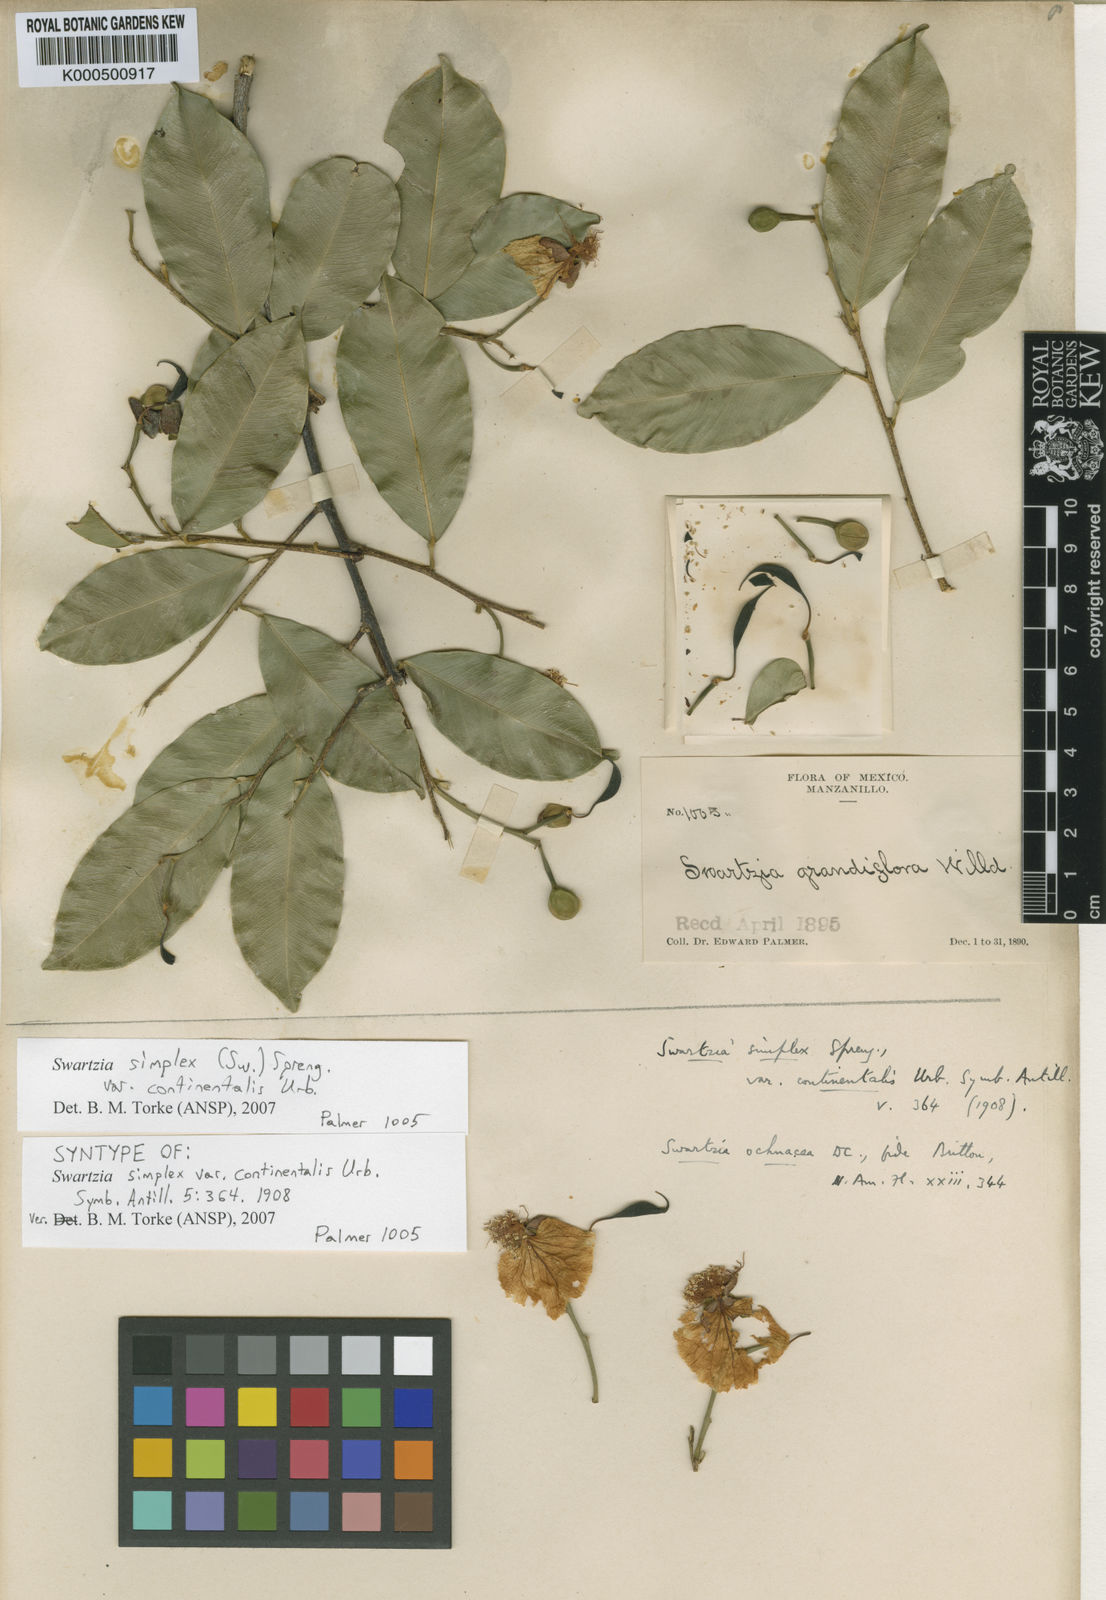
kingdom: Plantae
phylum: Tracheophyta
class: Magnoliopsida
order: Fabales
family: Fabaceae
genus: Swartzia
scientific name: Swartzia simplex
